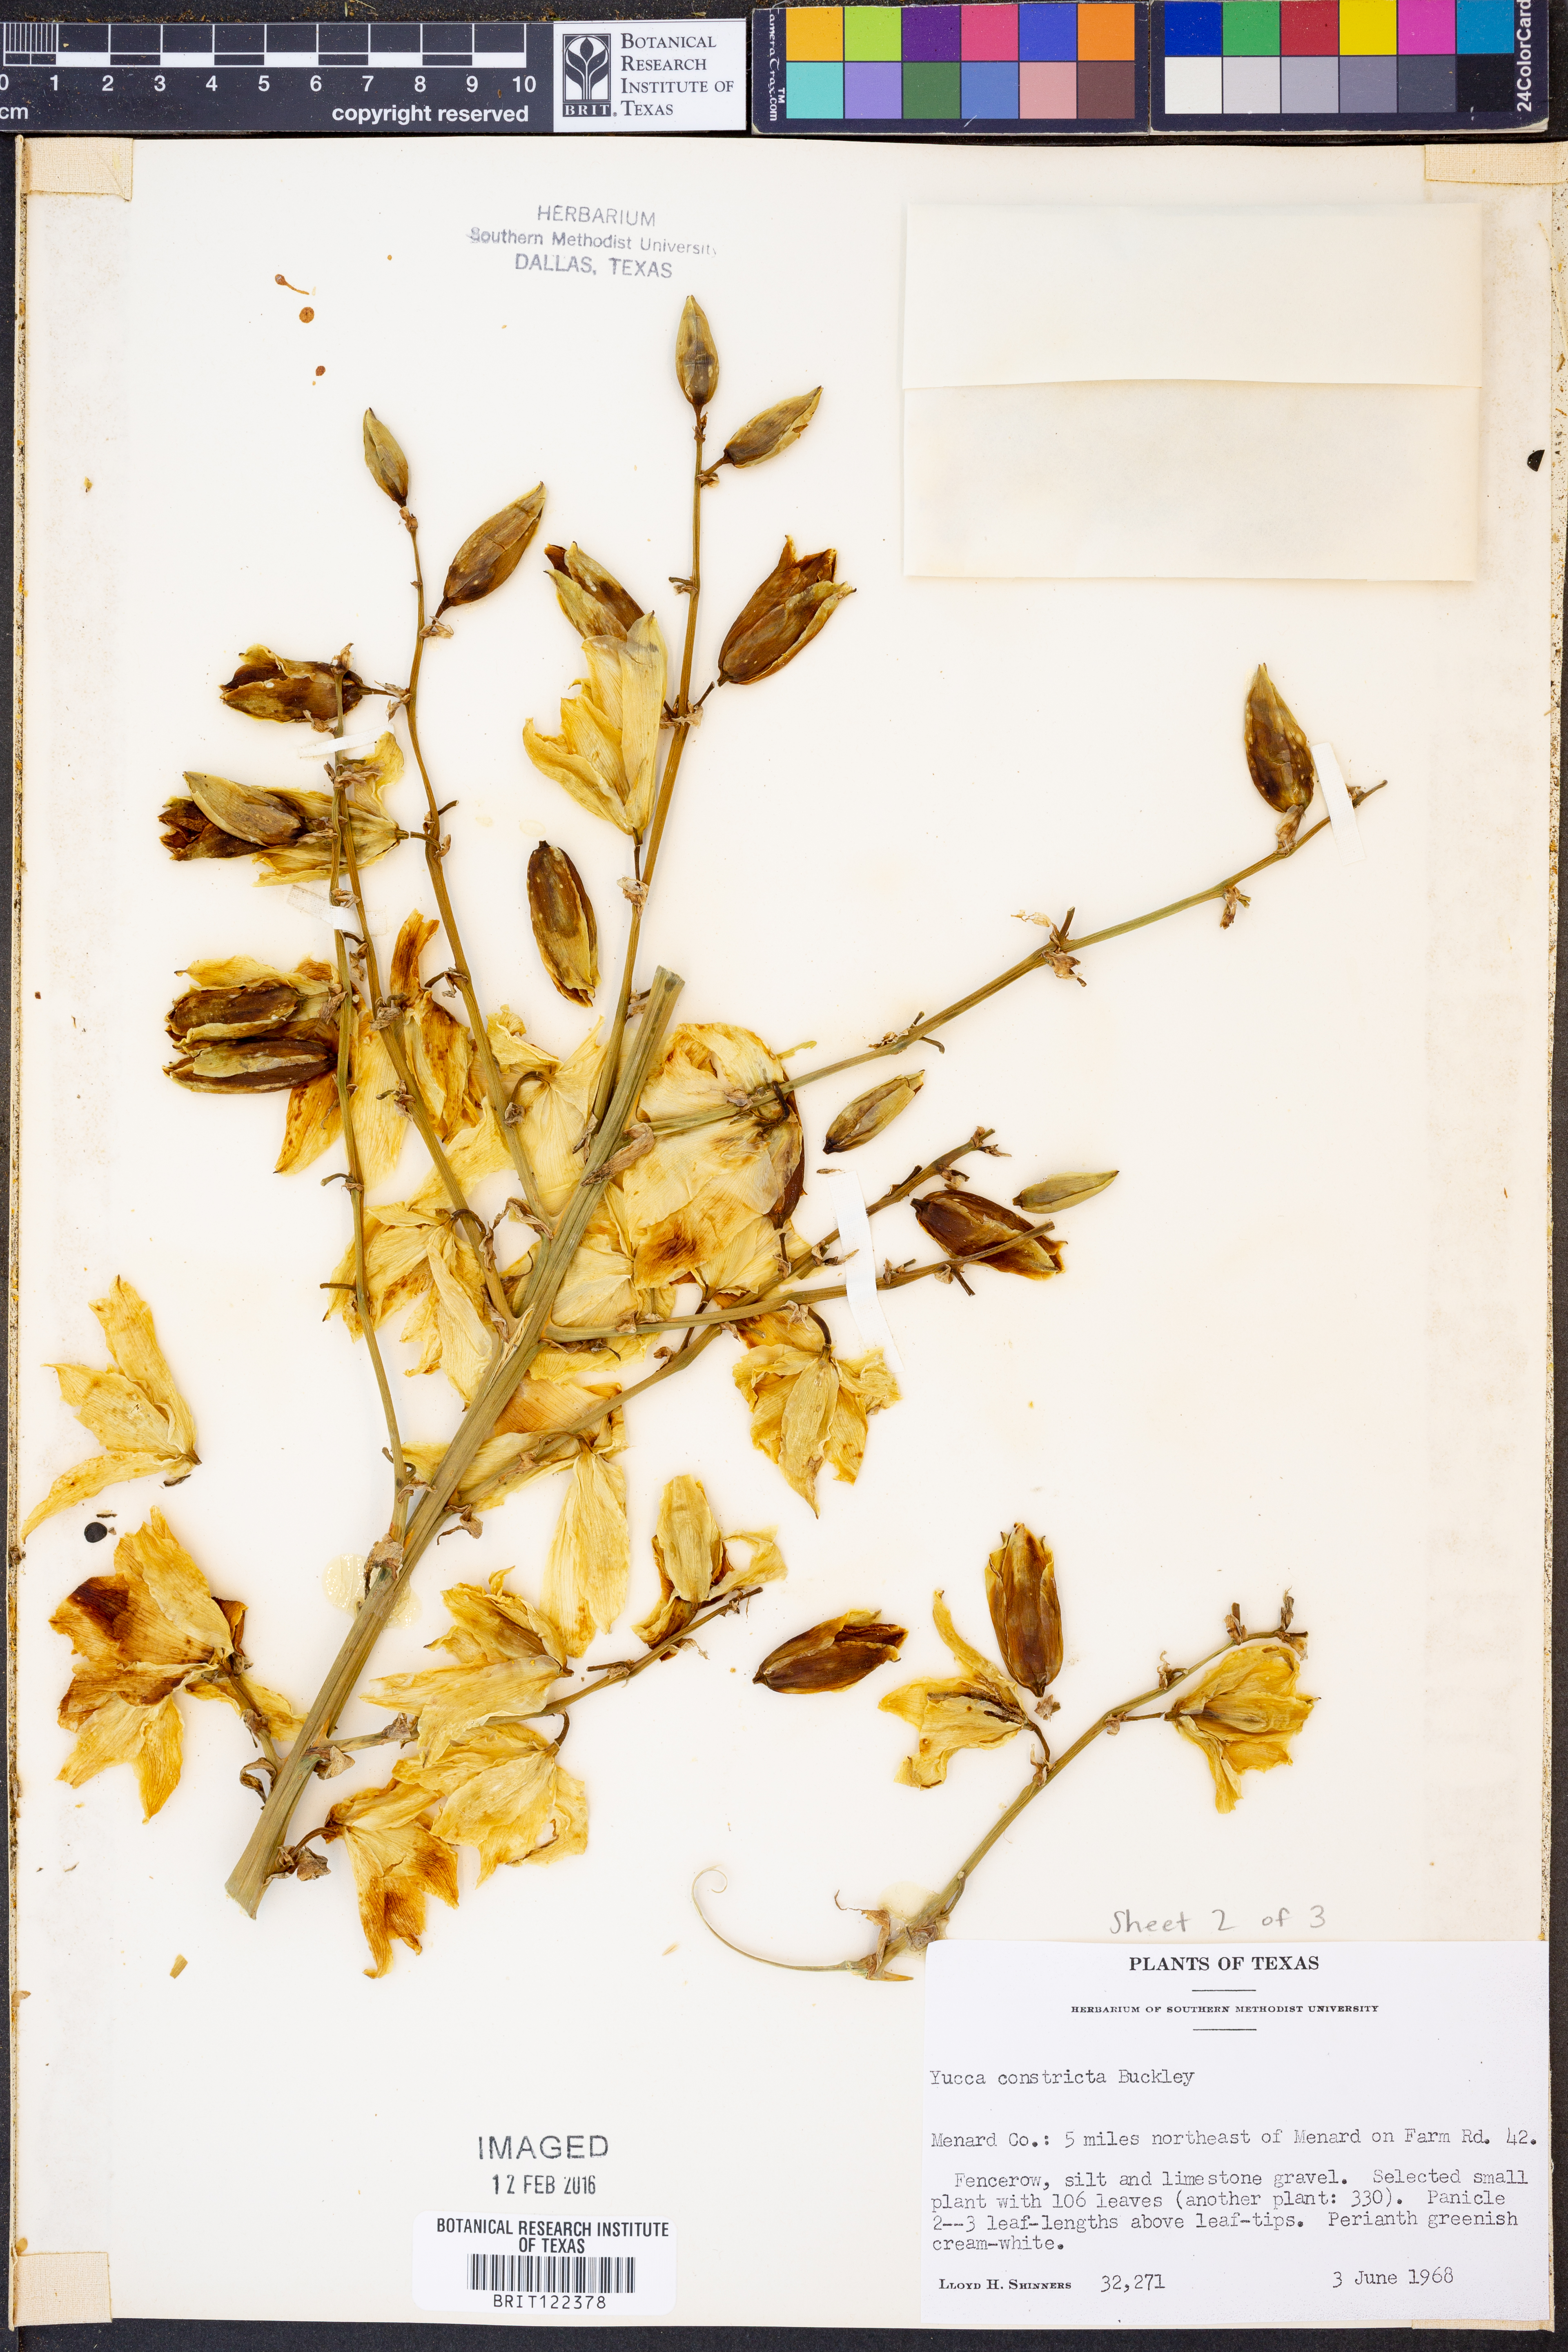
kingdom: Plantae
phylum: Tracheophyta
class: Liliopsida
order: Asparagales
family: Asparagaceae
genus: Yucca
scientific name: Yucca constricta
